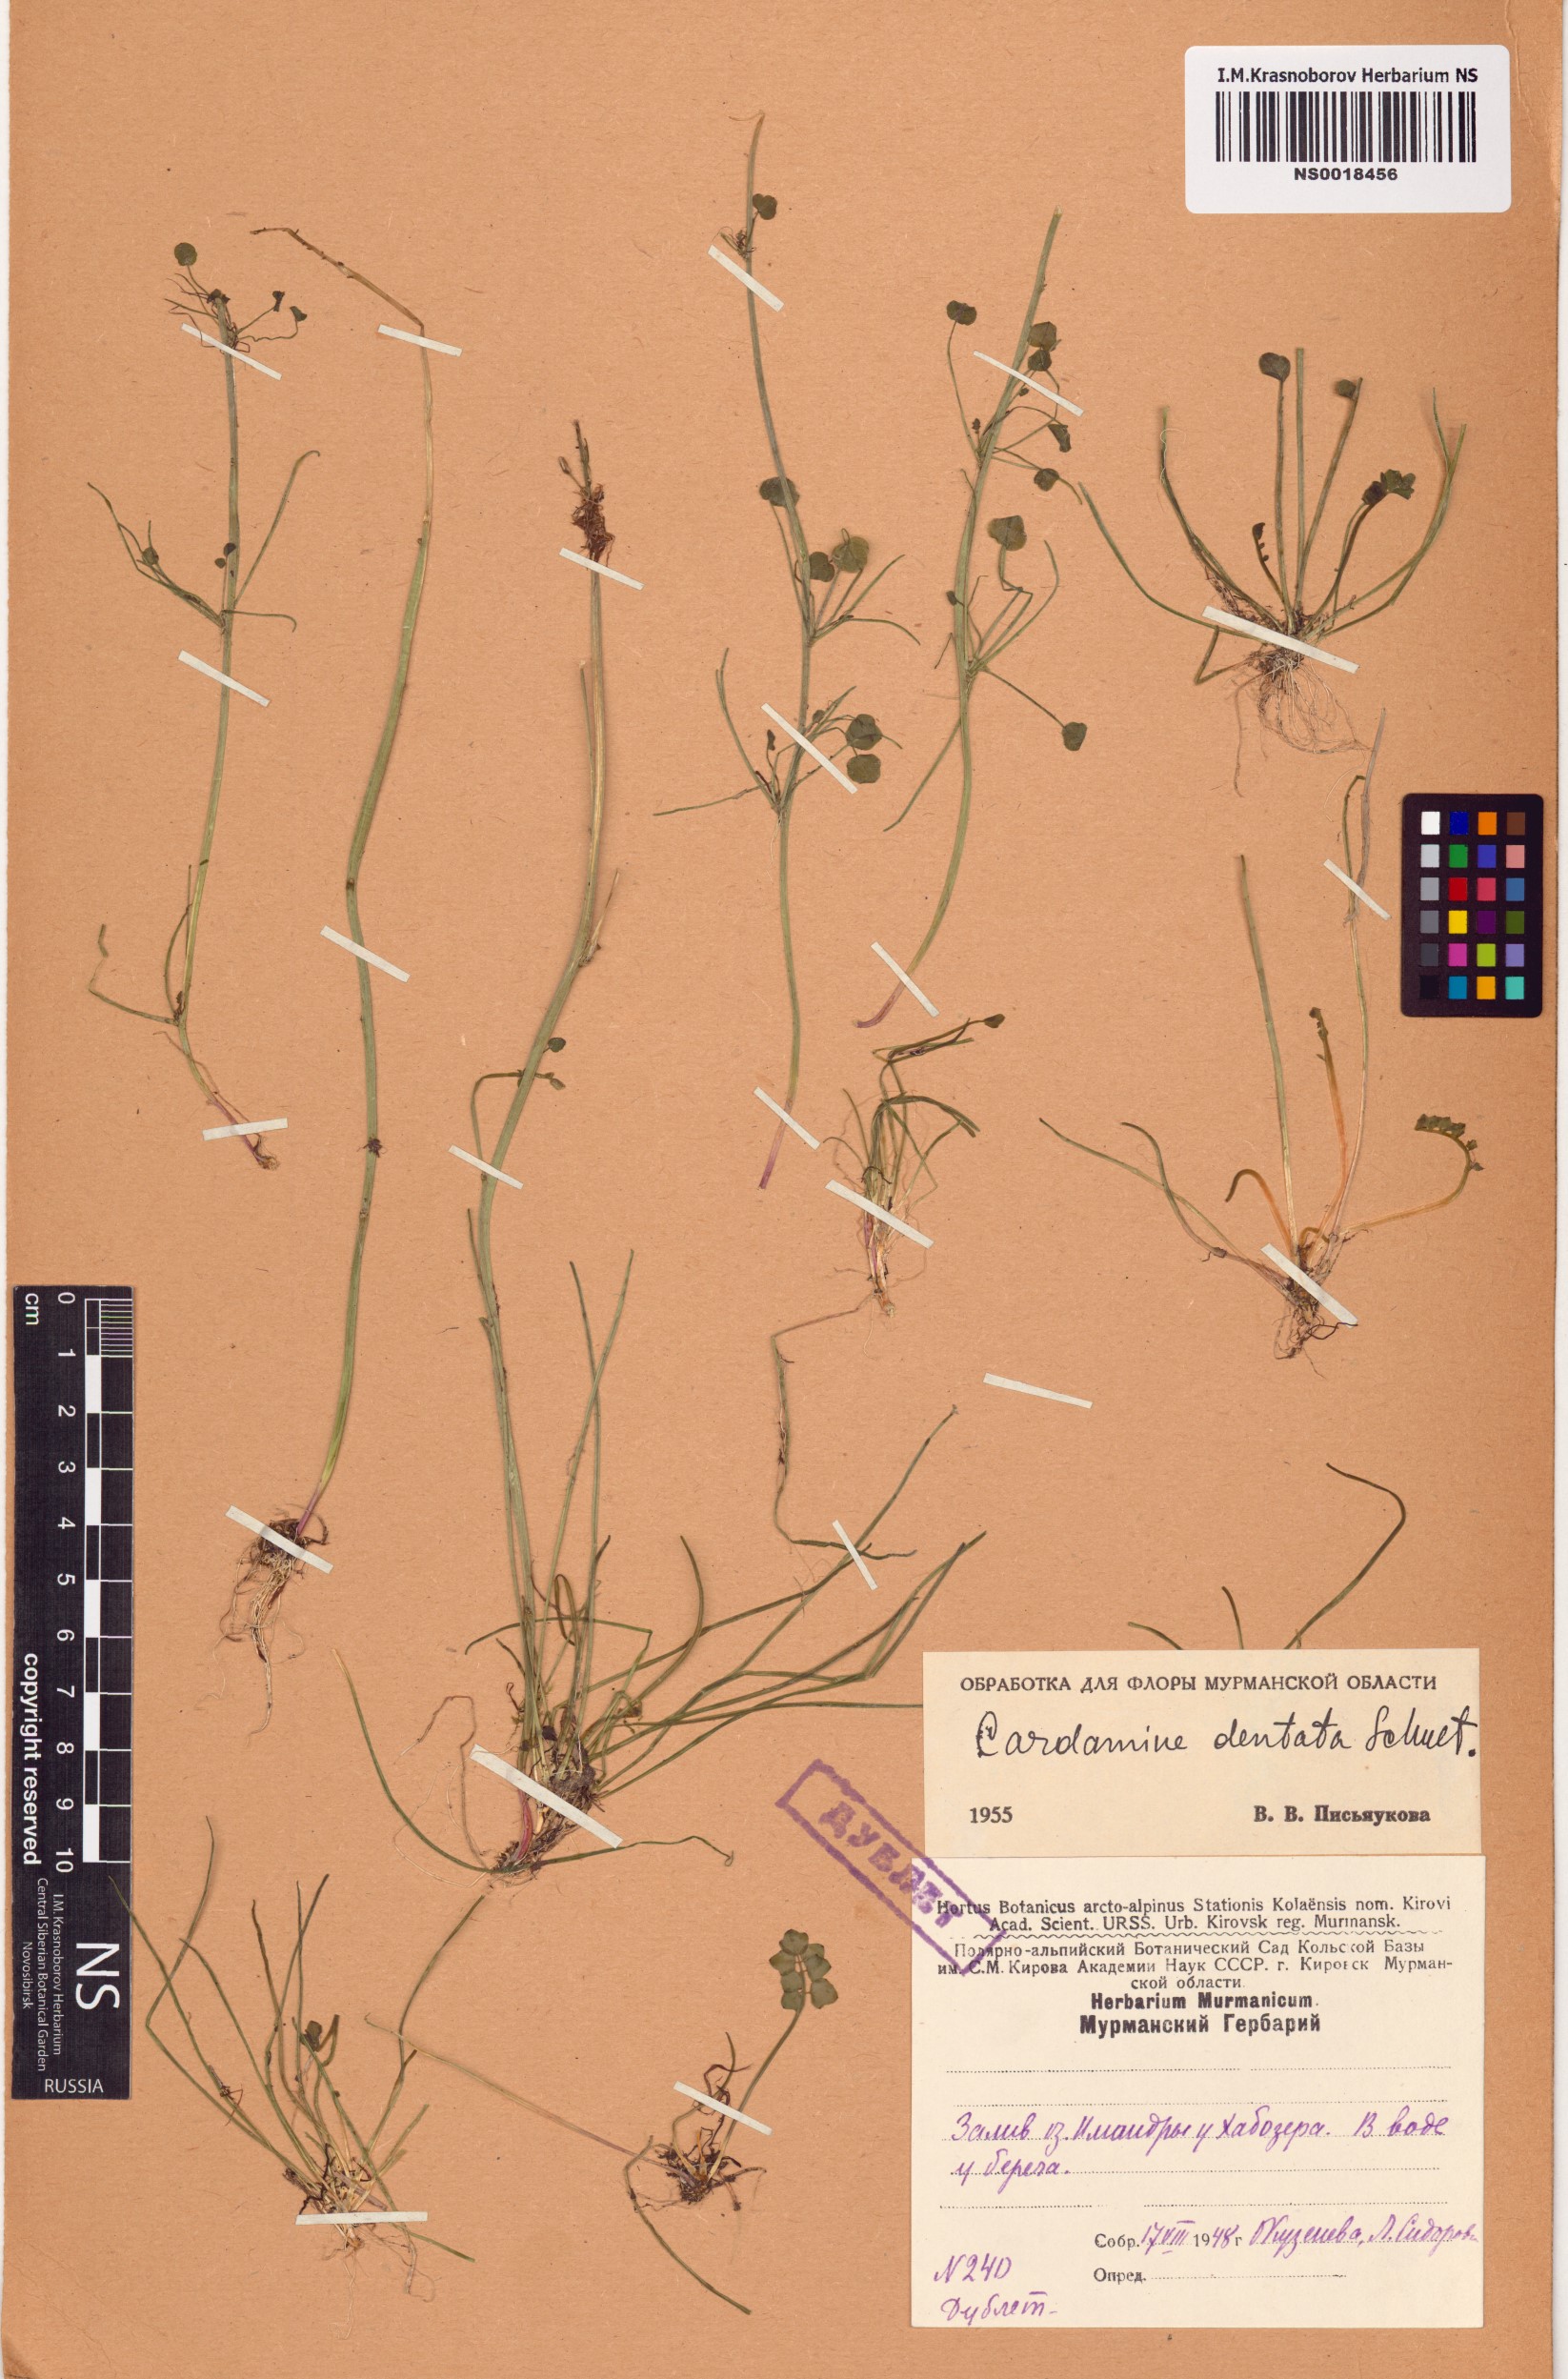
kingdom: Plantae
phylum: Tracheophyta
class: Magnoliopsida
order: Brassicales
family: Brassicaceae
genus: Cardamine
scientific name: Cardamine dentata
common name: Toothed bittercress
